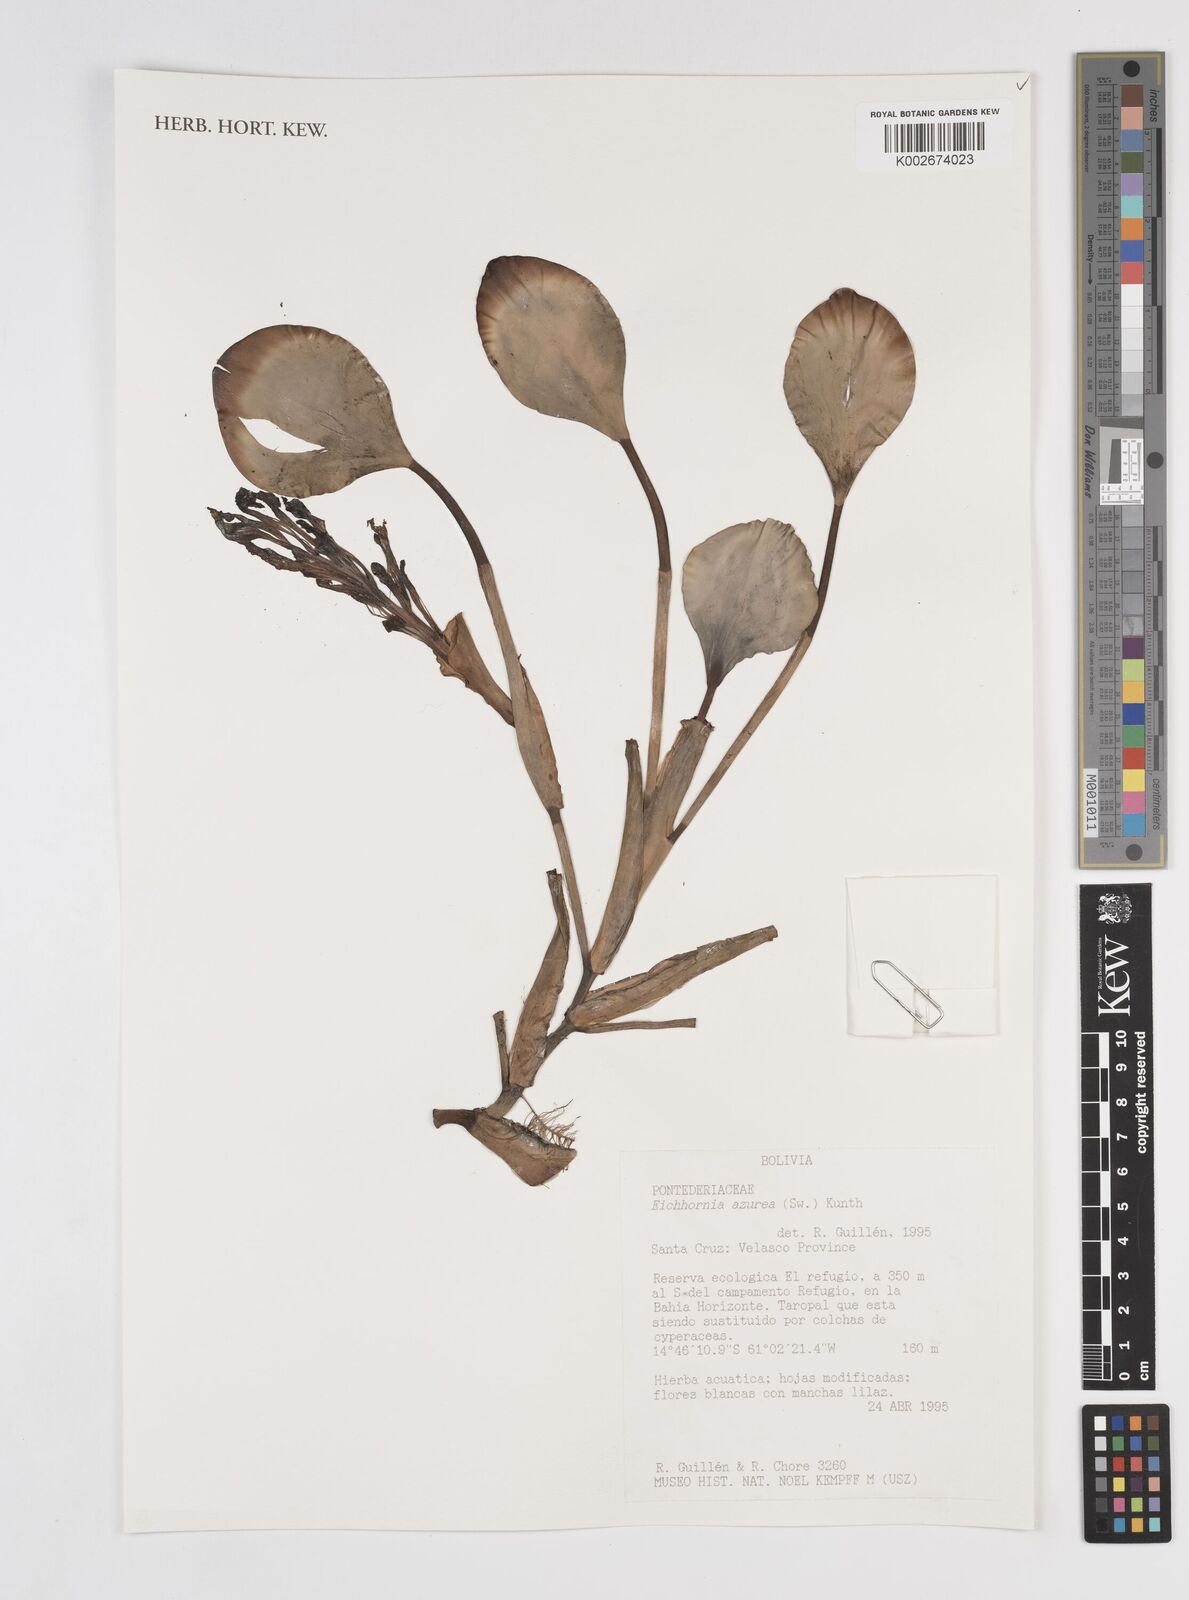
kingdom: Plantae
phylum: Tracheophyta
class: Liliopsida
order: Commelinales
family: Pontederiaceae
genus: Pontederia
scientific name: Pontederia azurea
